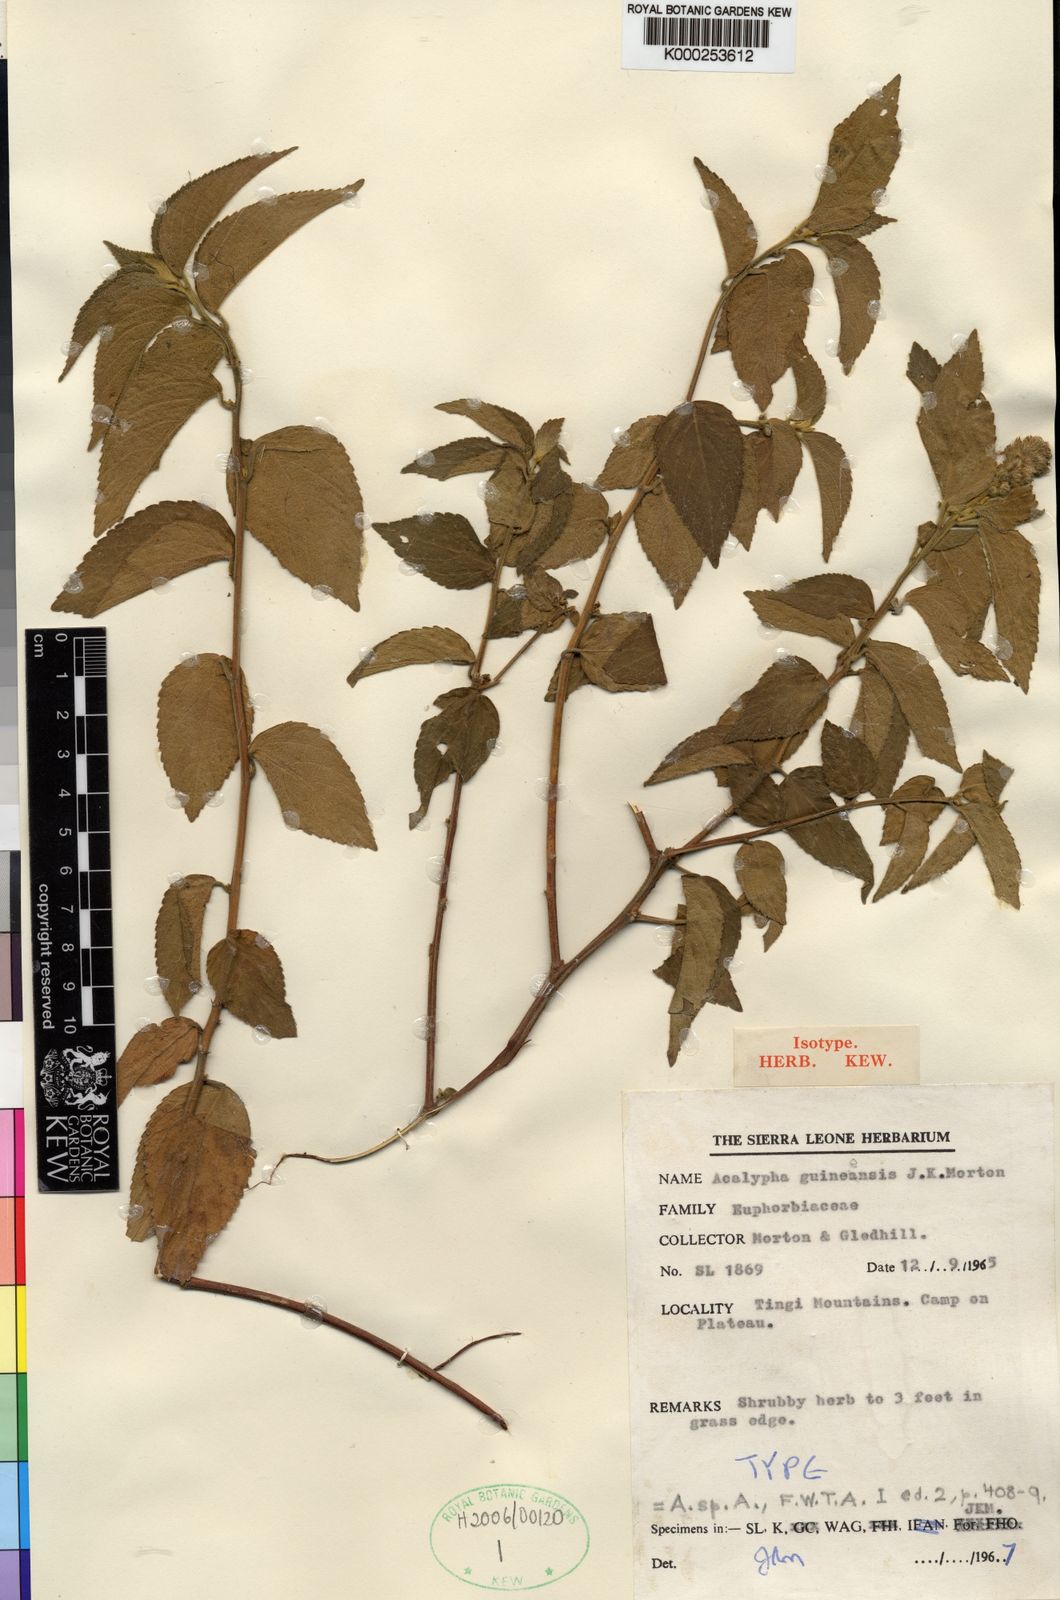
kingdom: Plantae
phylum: Tracheophyta
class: Magnoliopsida
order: Malpighiales
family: Euphorbiaceae
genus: Acalypha
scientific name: Acalypha guineensis
